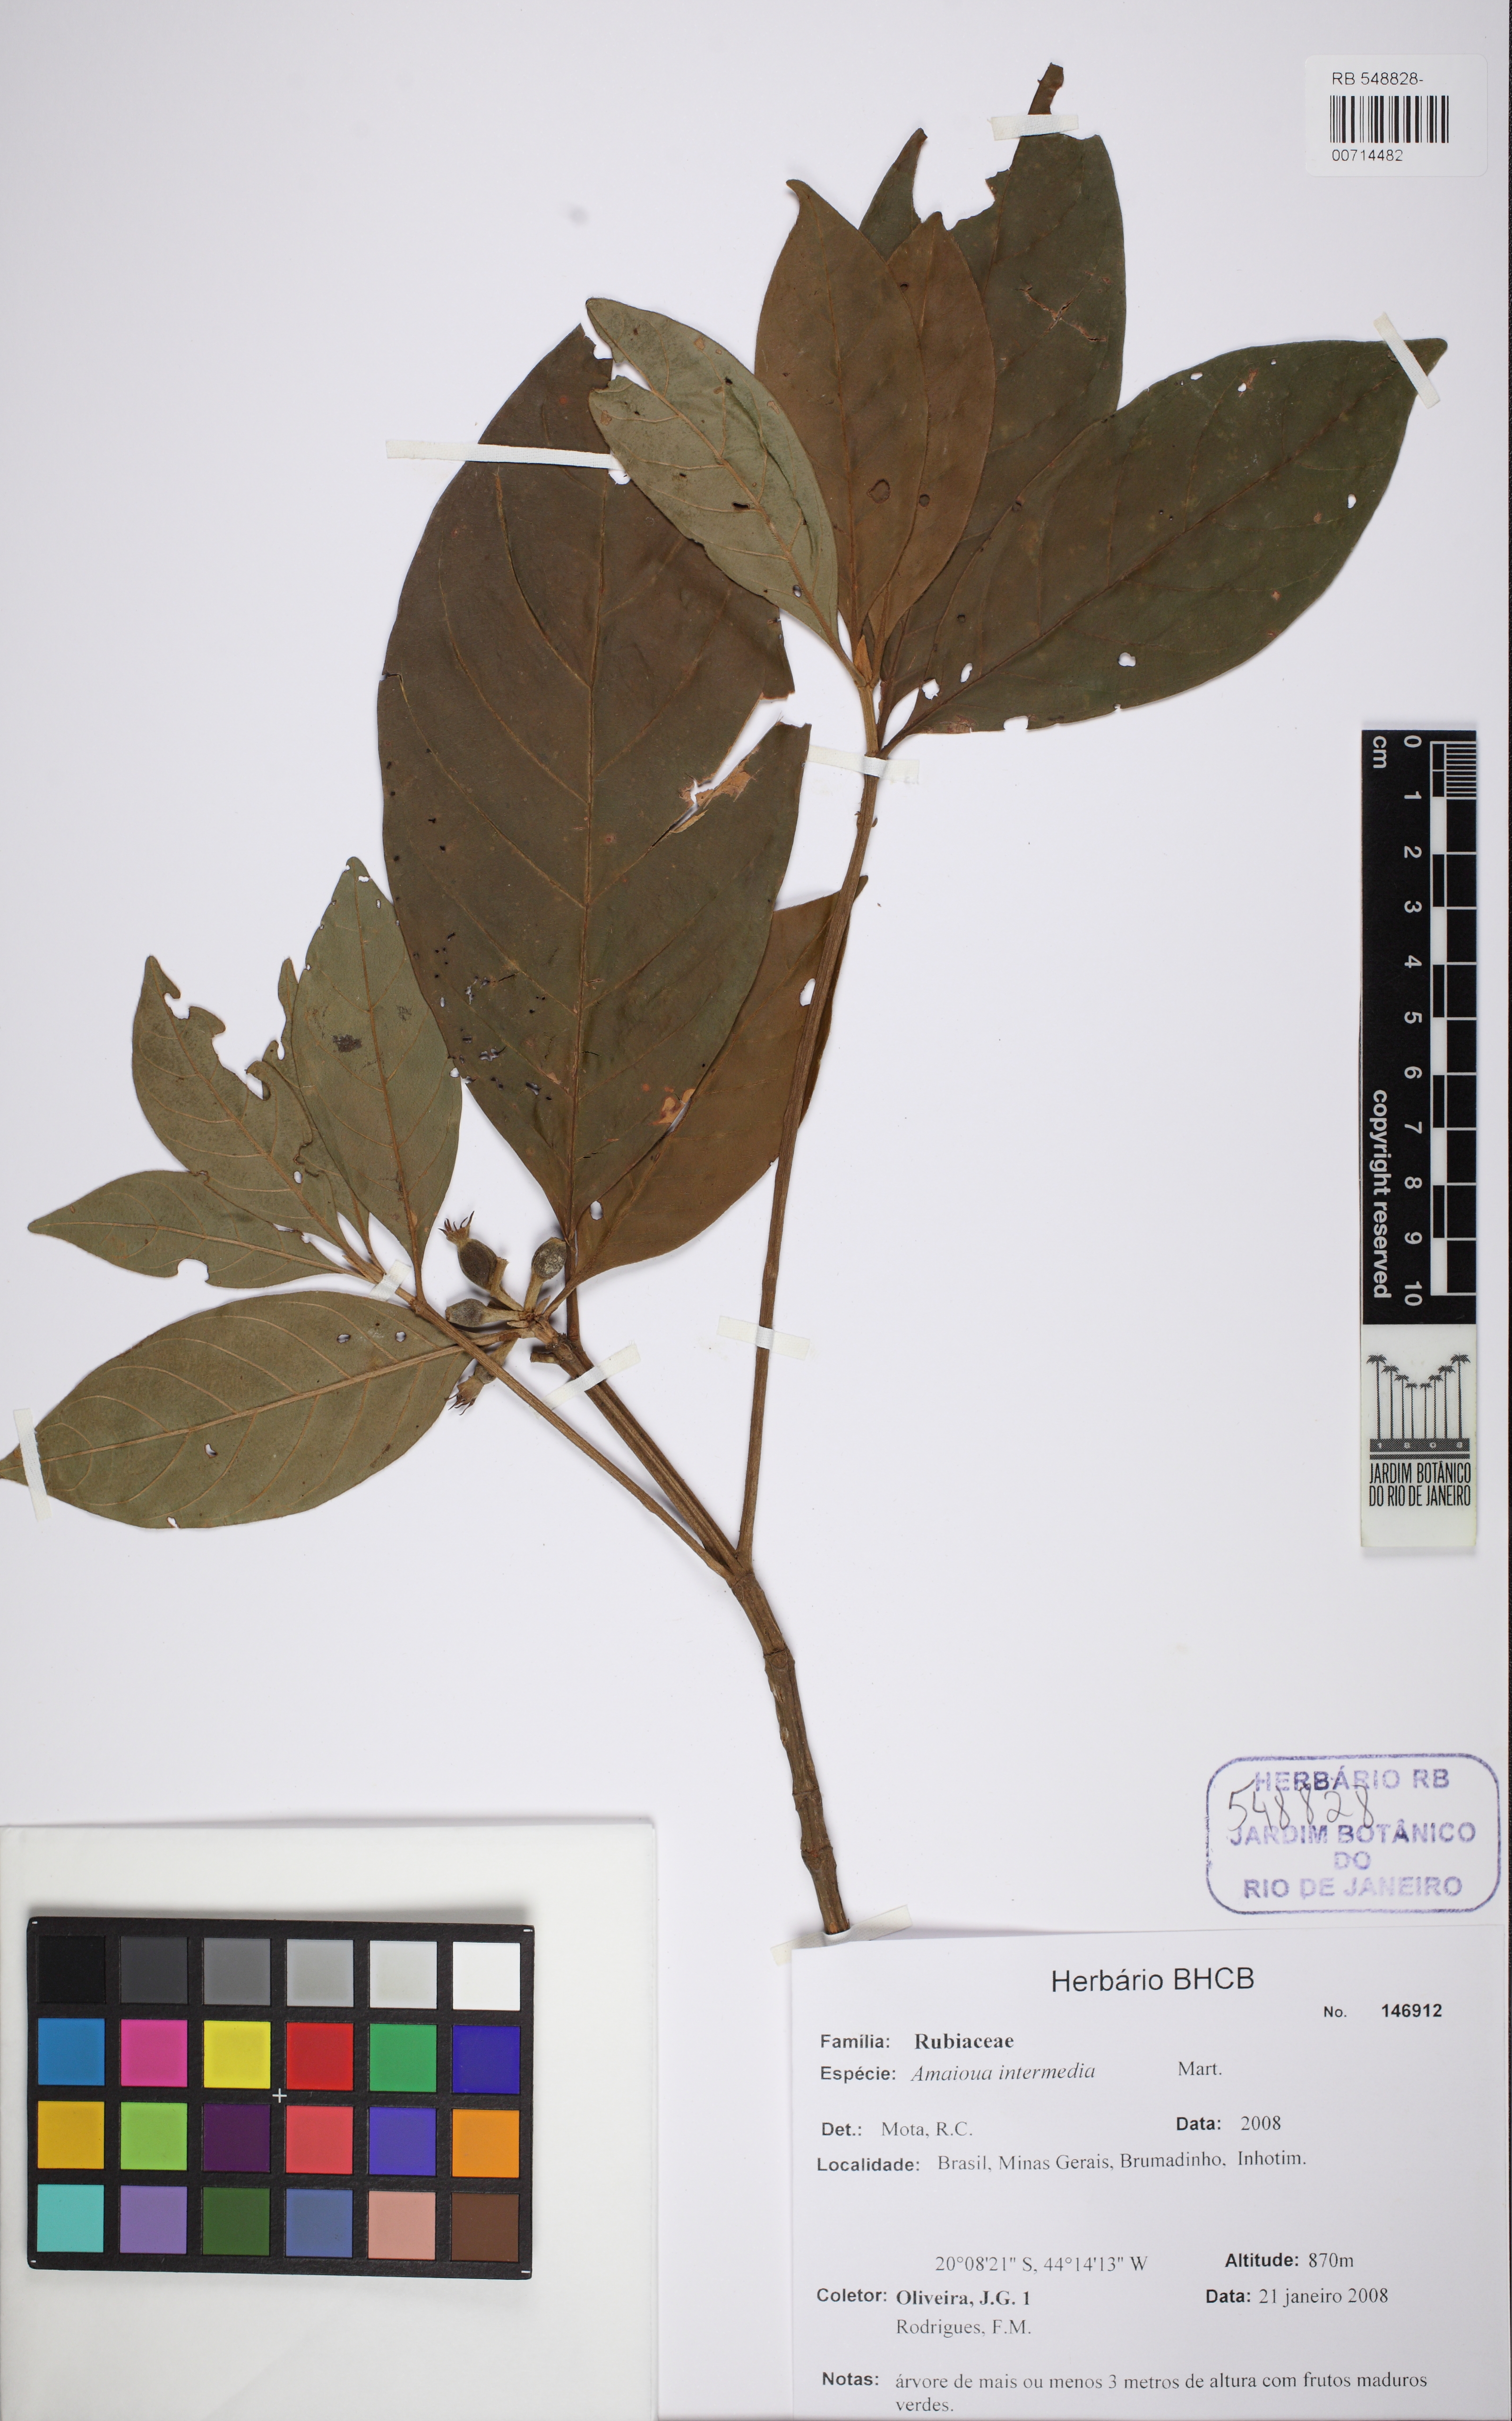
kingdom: Plantae
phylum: Tracheophyta
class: Magnoliopsida
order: Gentianales
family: Rubiaceae
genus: Amaioua
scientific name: Amaioua intermedia
